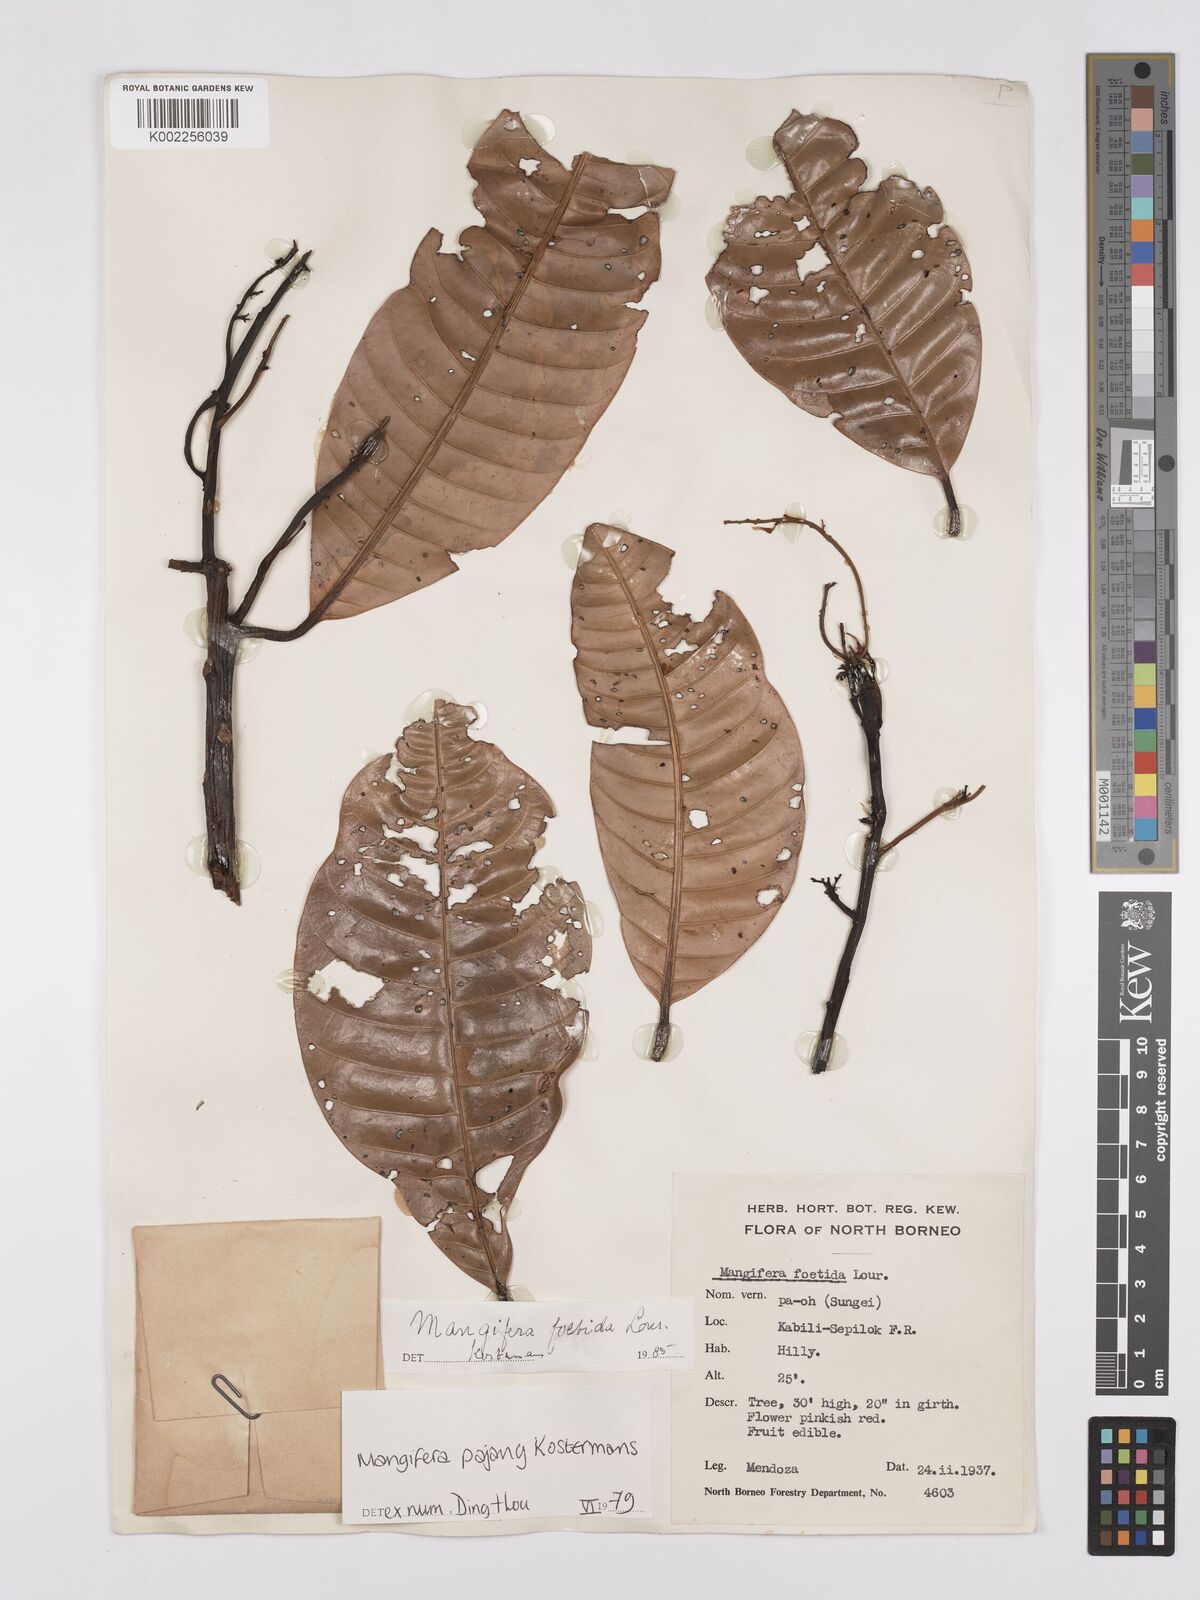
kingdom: Plantae
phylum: Tracheophyta
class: Magnoliopsida
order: Sapindales
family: Anacardiaceae
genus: Mangifera
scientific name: Mangifera pajang
